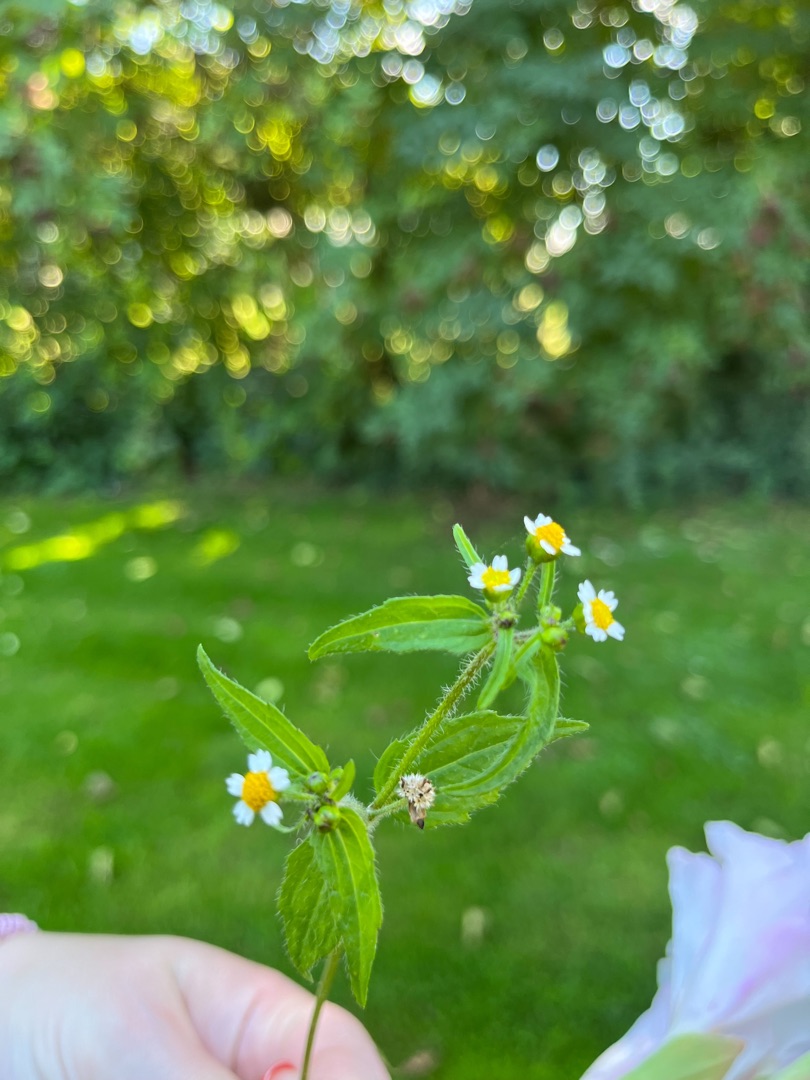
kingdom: Plantae
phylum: Tracheophyta
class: Magnoliopsida
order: Asterales
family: Asteraceae
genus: Galinsoga
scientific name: Galinsoga quadriradiata
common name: Kirtel-kortstråle
